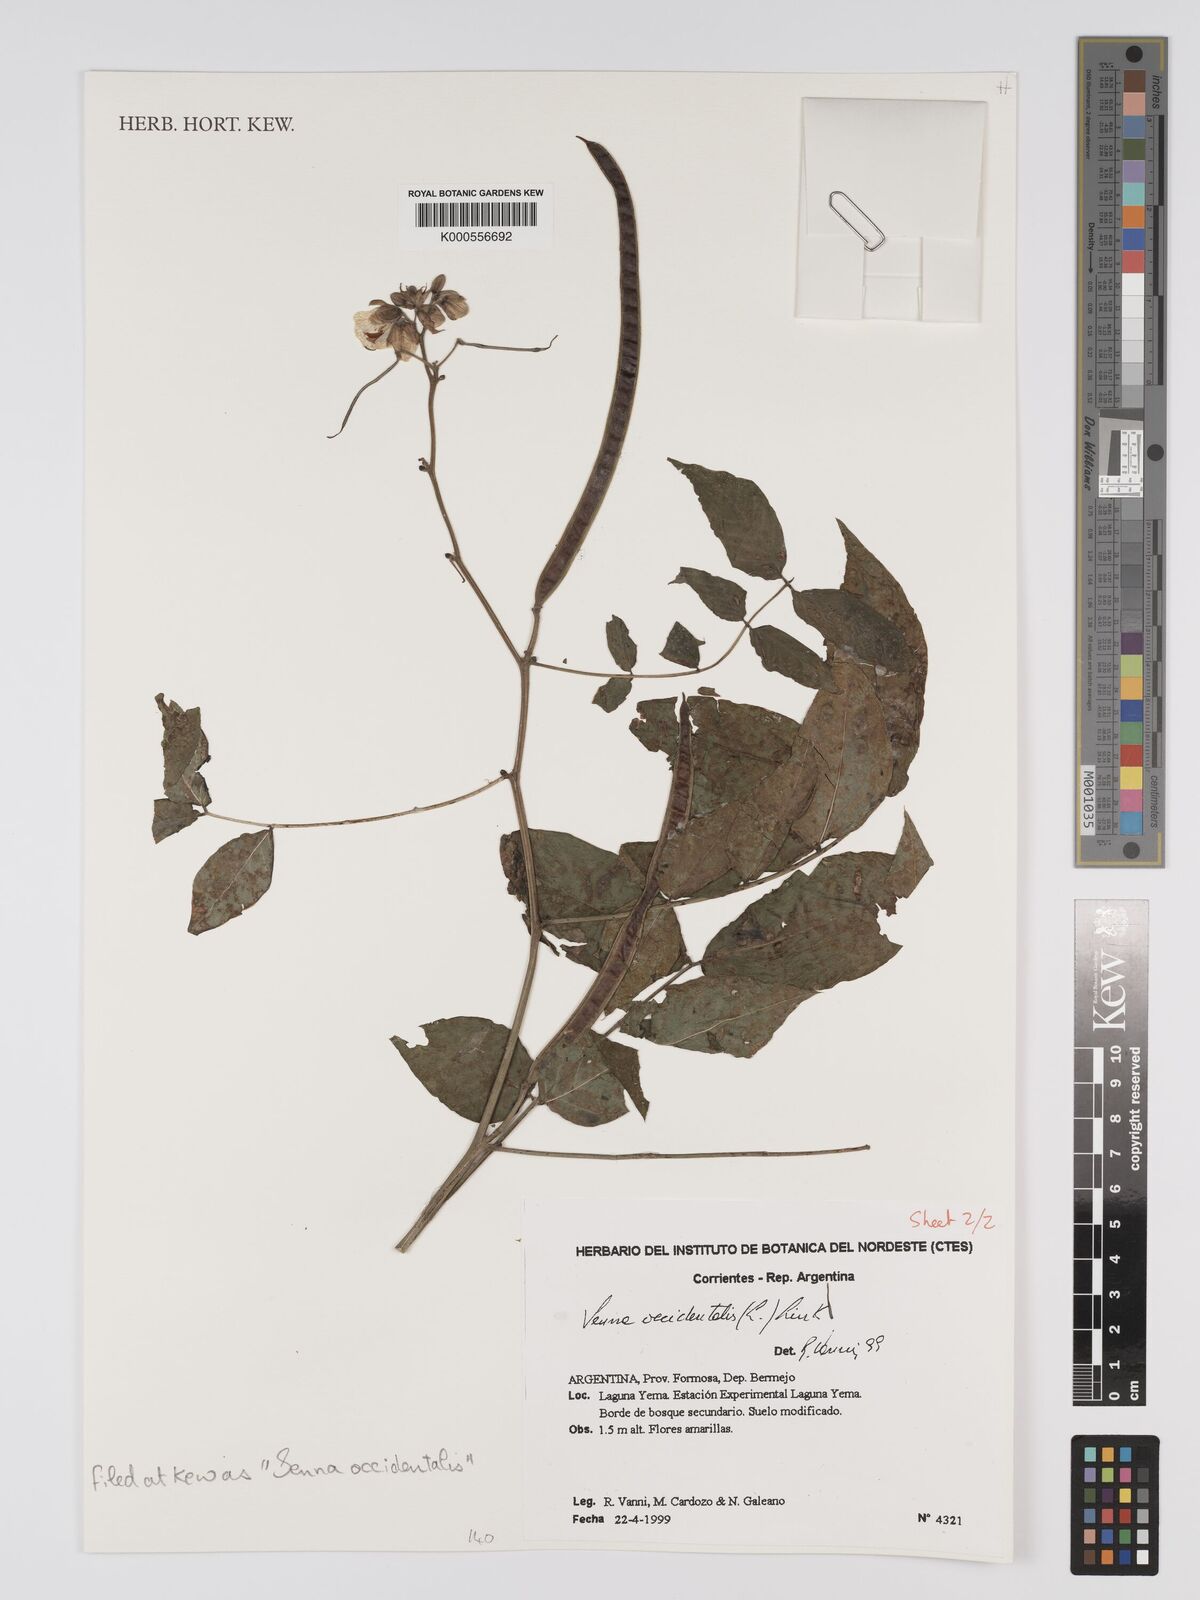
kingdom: Plantae
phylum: Tracheophyta
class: Magnoliopsida
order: Fabales
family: Fabaceae
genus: Senna
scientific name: Senna occidentalis
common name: Septicweed
